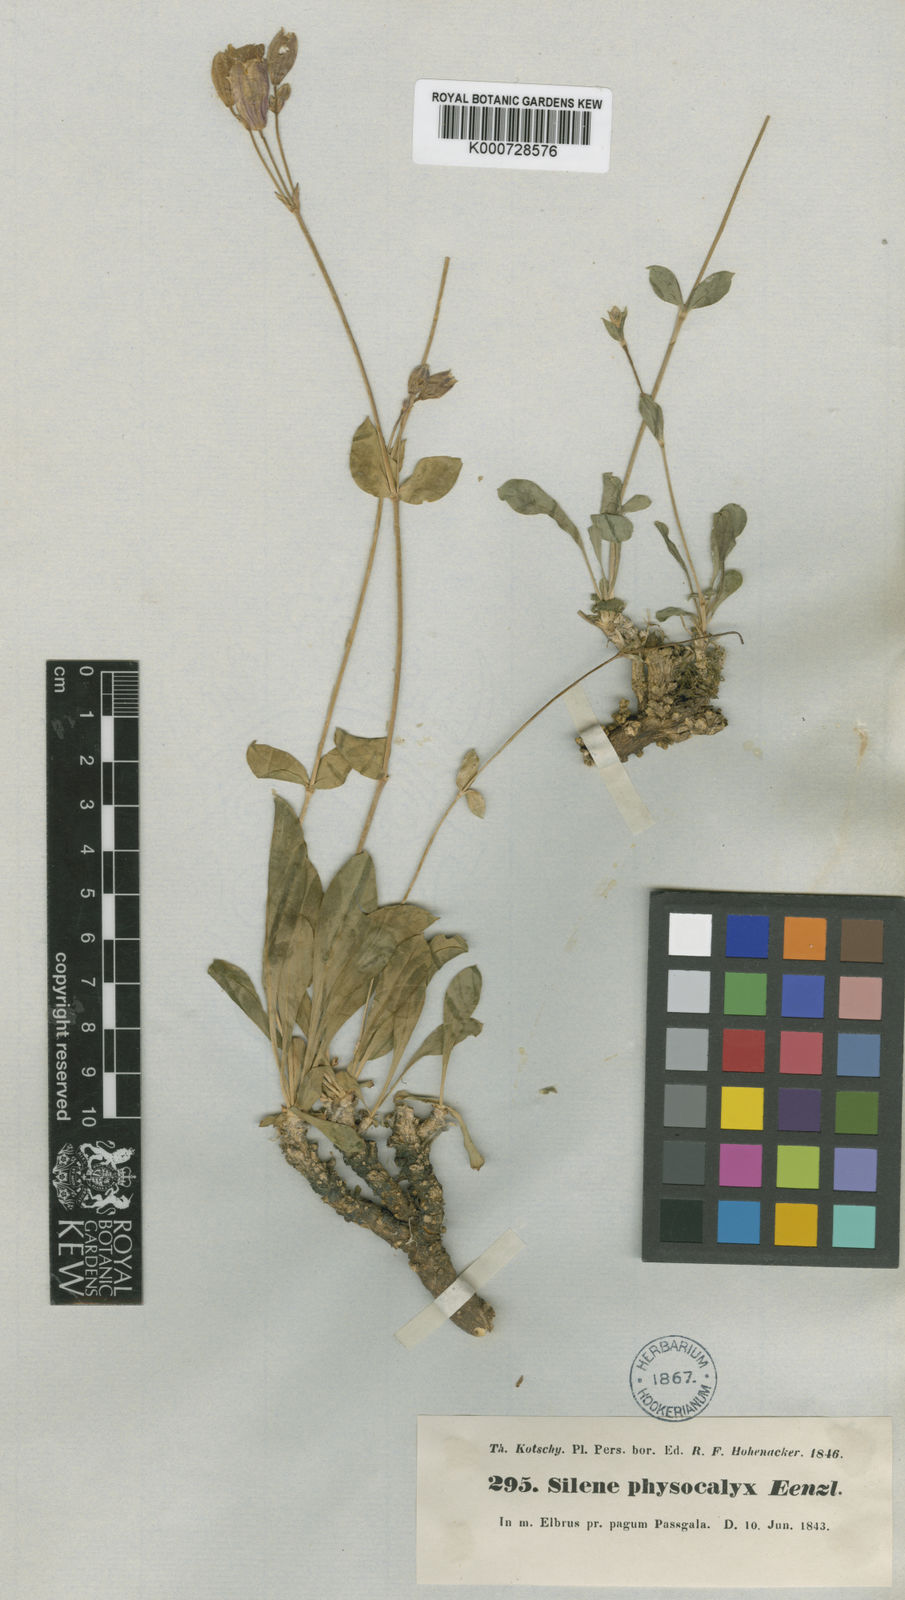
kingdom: Plantae
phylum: Tracheophyta
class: Magnoliopsida
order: Caryophyllales
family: Caryophyllaceae
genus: Silene
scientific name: Silene odontopetala
